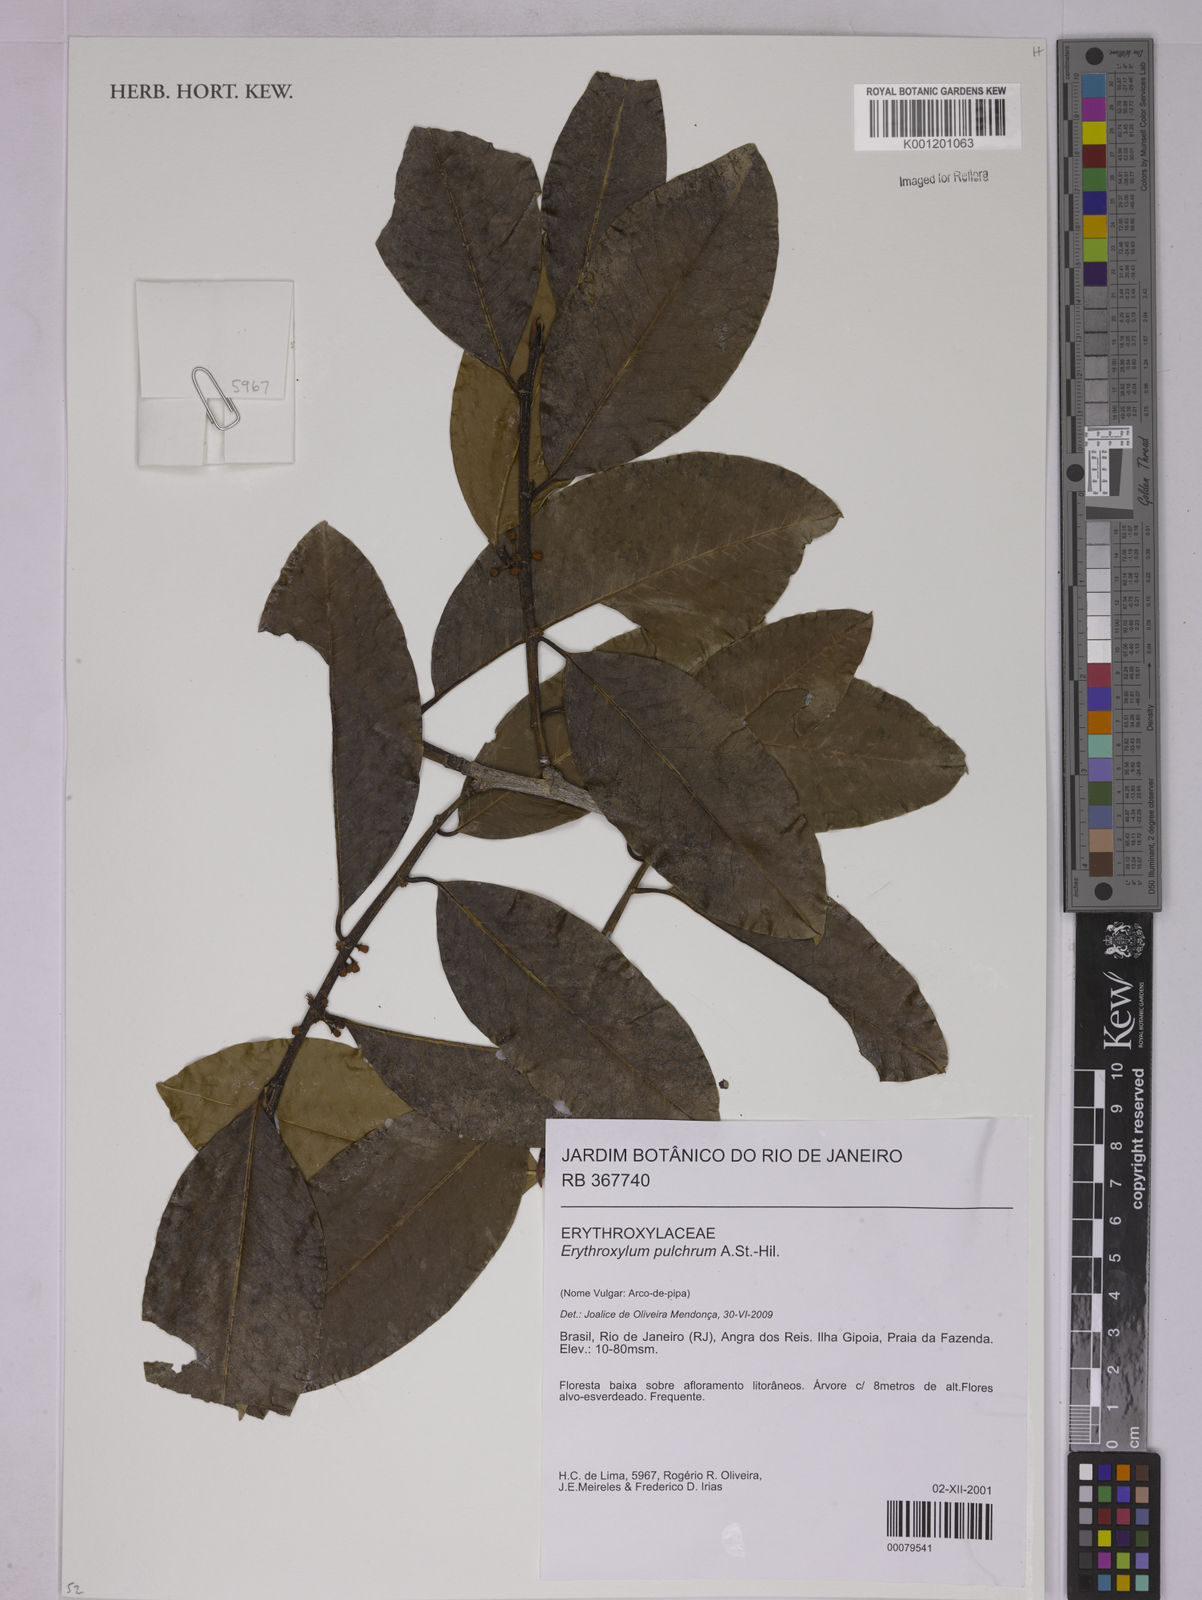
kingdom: Plantae
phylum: Tracheophyta
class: Magnoliopsida
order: Malpighiales
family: Erythroxylaceae
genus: Erythroxylum
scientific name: Erythroxylum pulchrum
